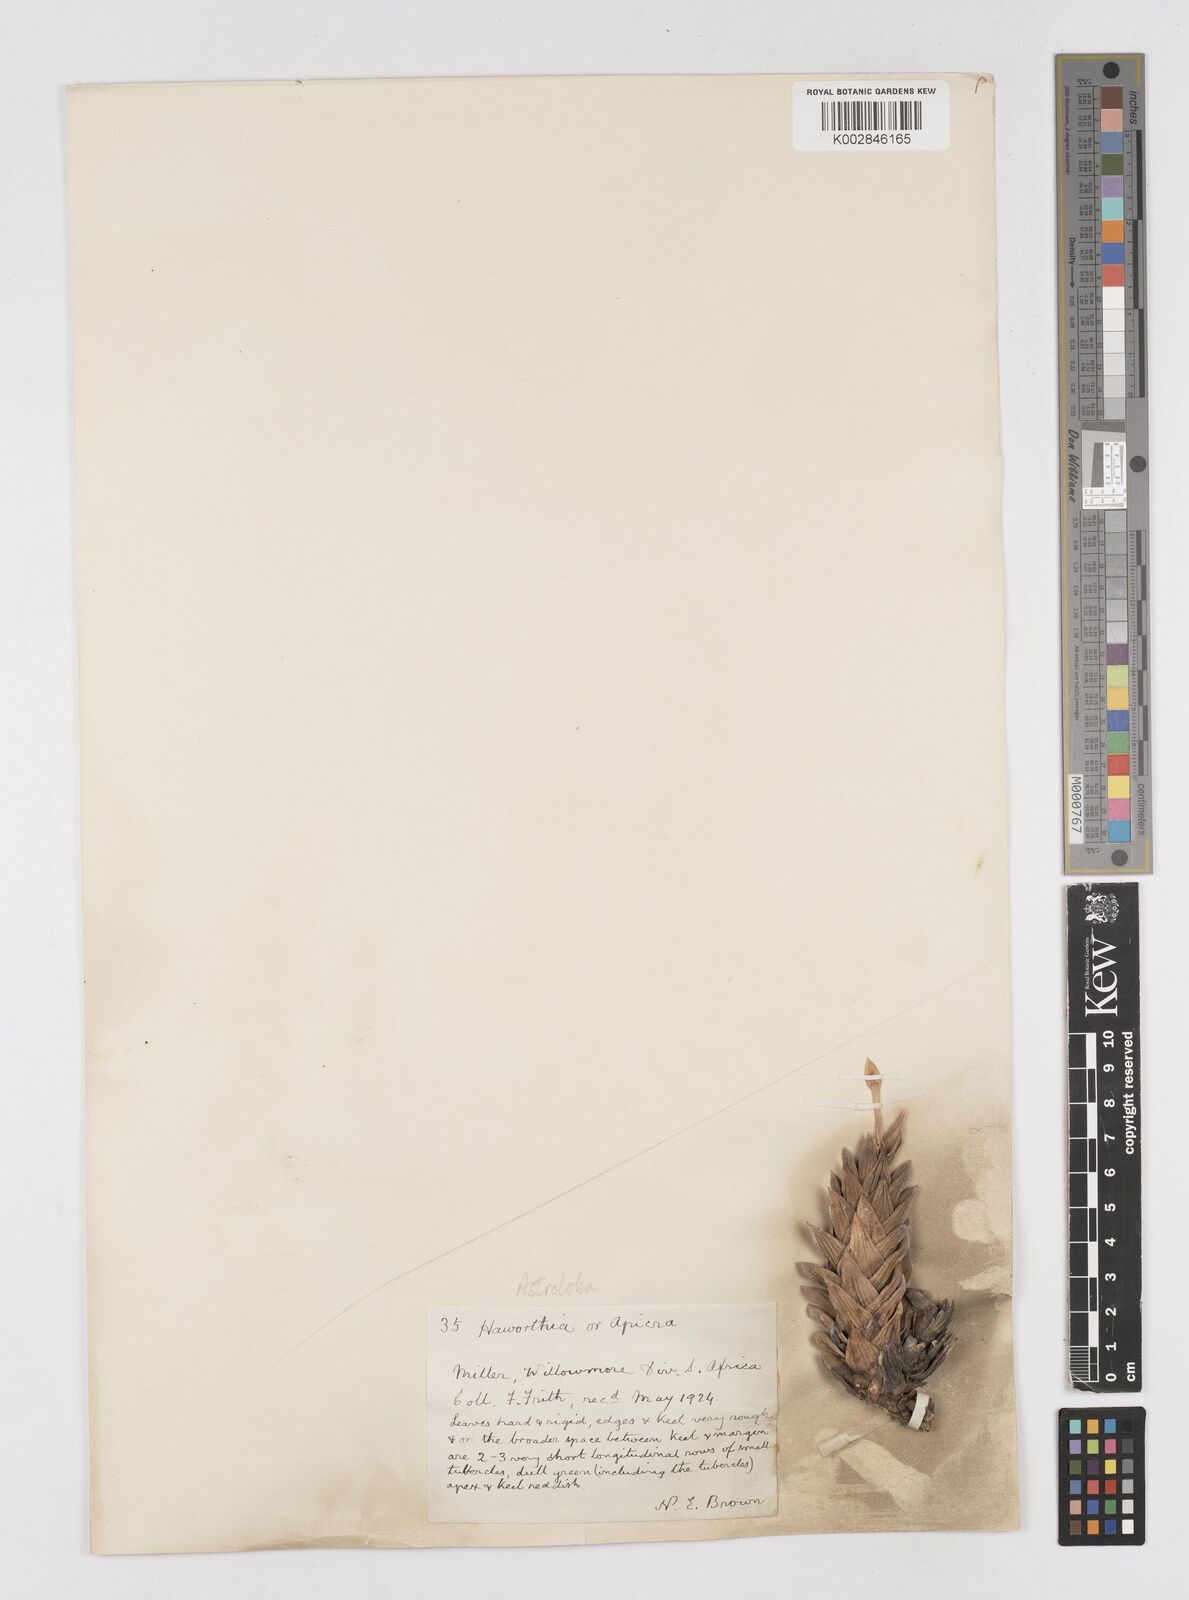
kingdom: Plantae
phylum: Tracheophyta
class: Liliopsida
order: Asparagales
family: Asphodelaceae
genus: Astroloba
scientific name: Astroloba
